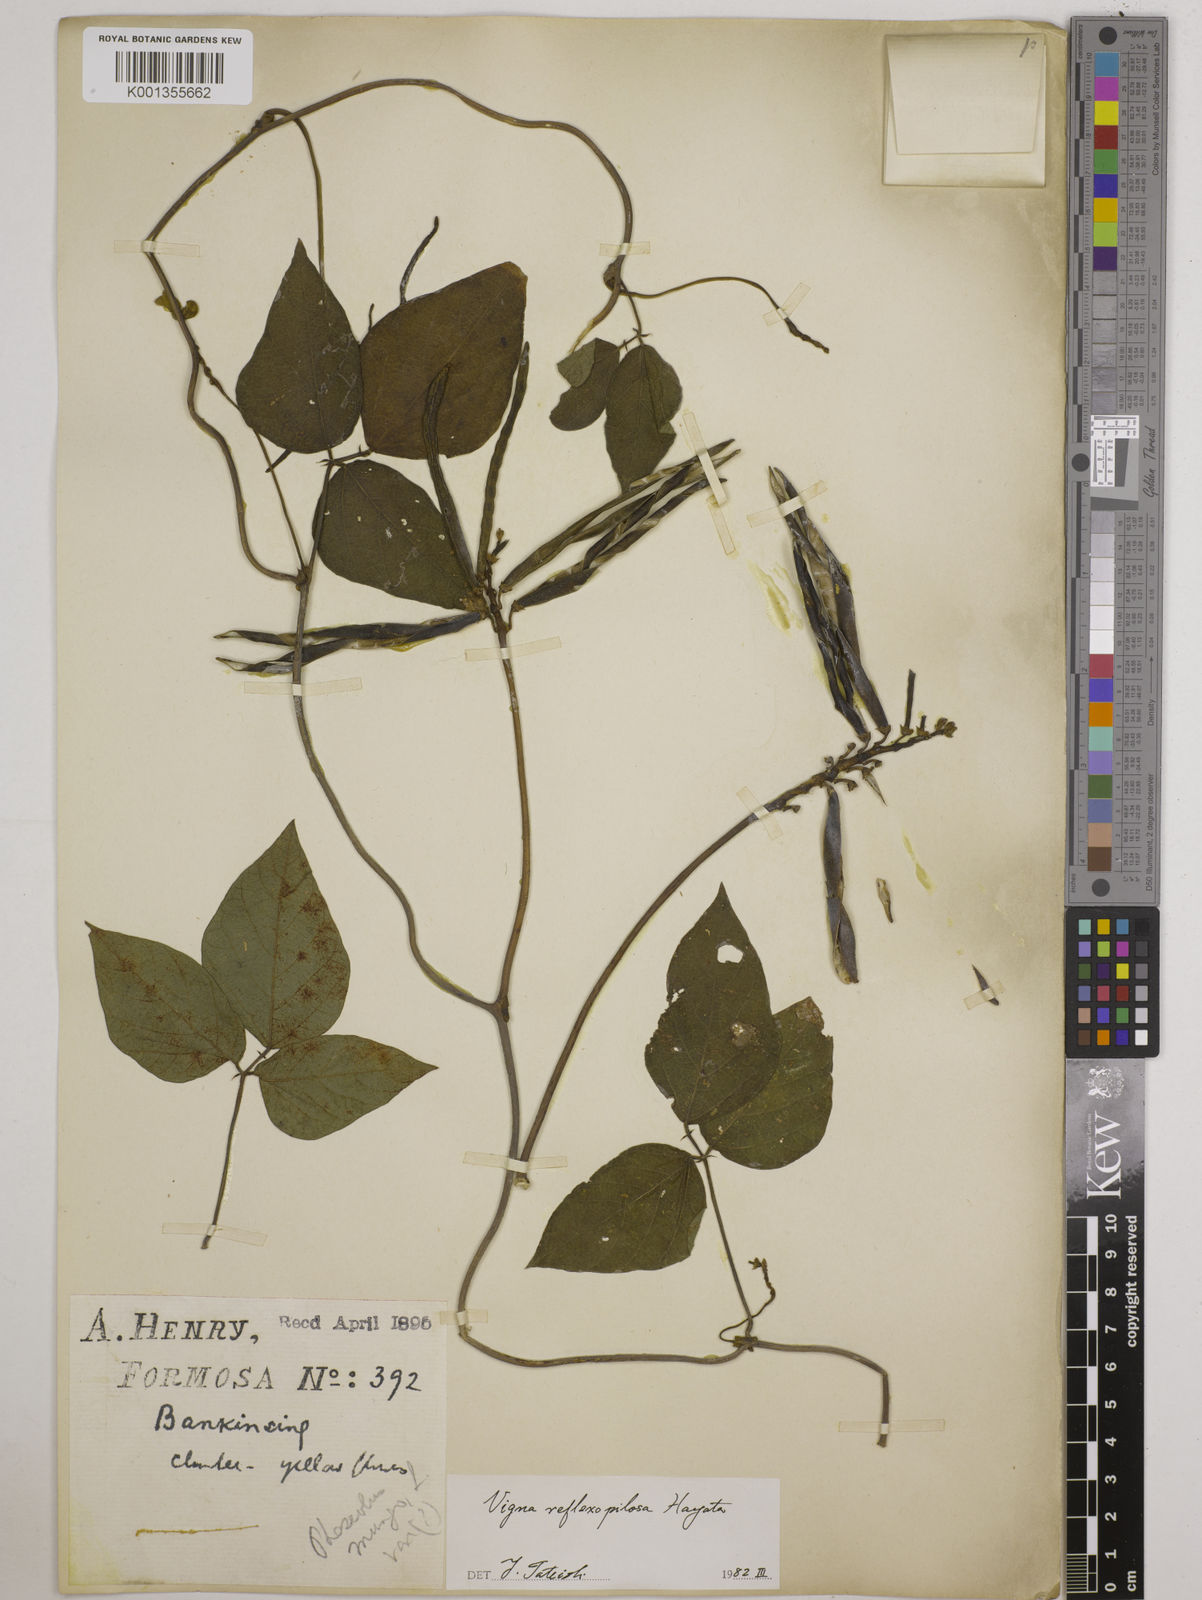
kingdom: Plantae
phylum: Tracheophyta
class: Magnoliopsida
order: Fabales
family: Fabaceae
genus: Vigna
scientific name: Vigna reflexopilosa
